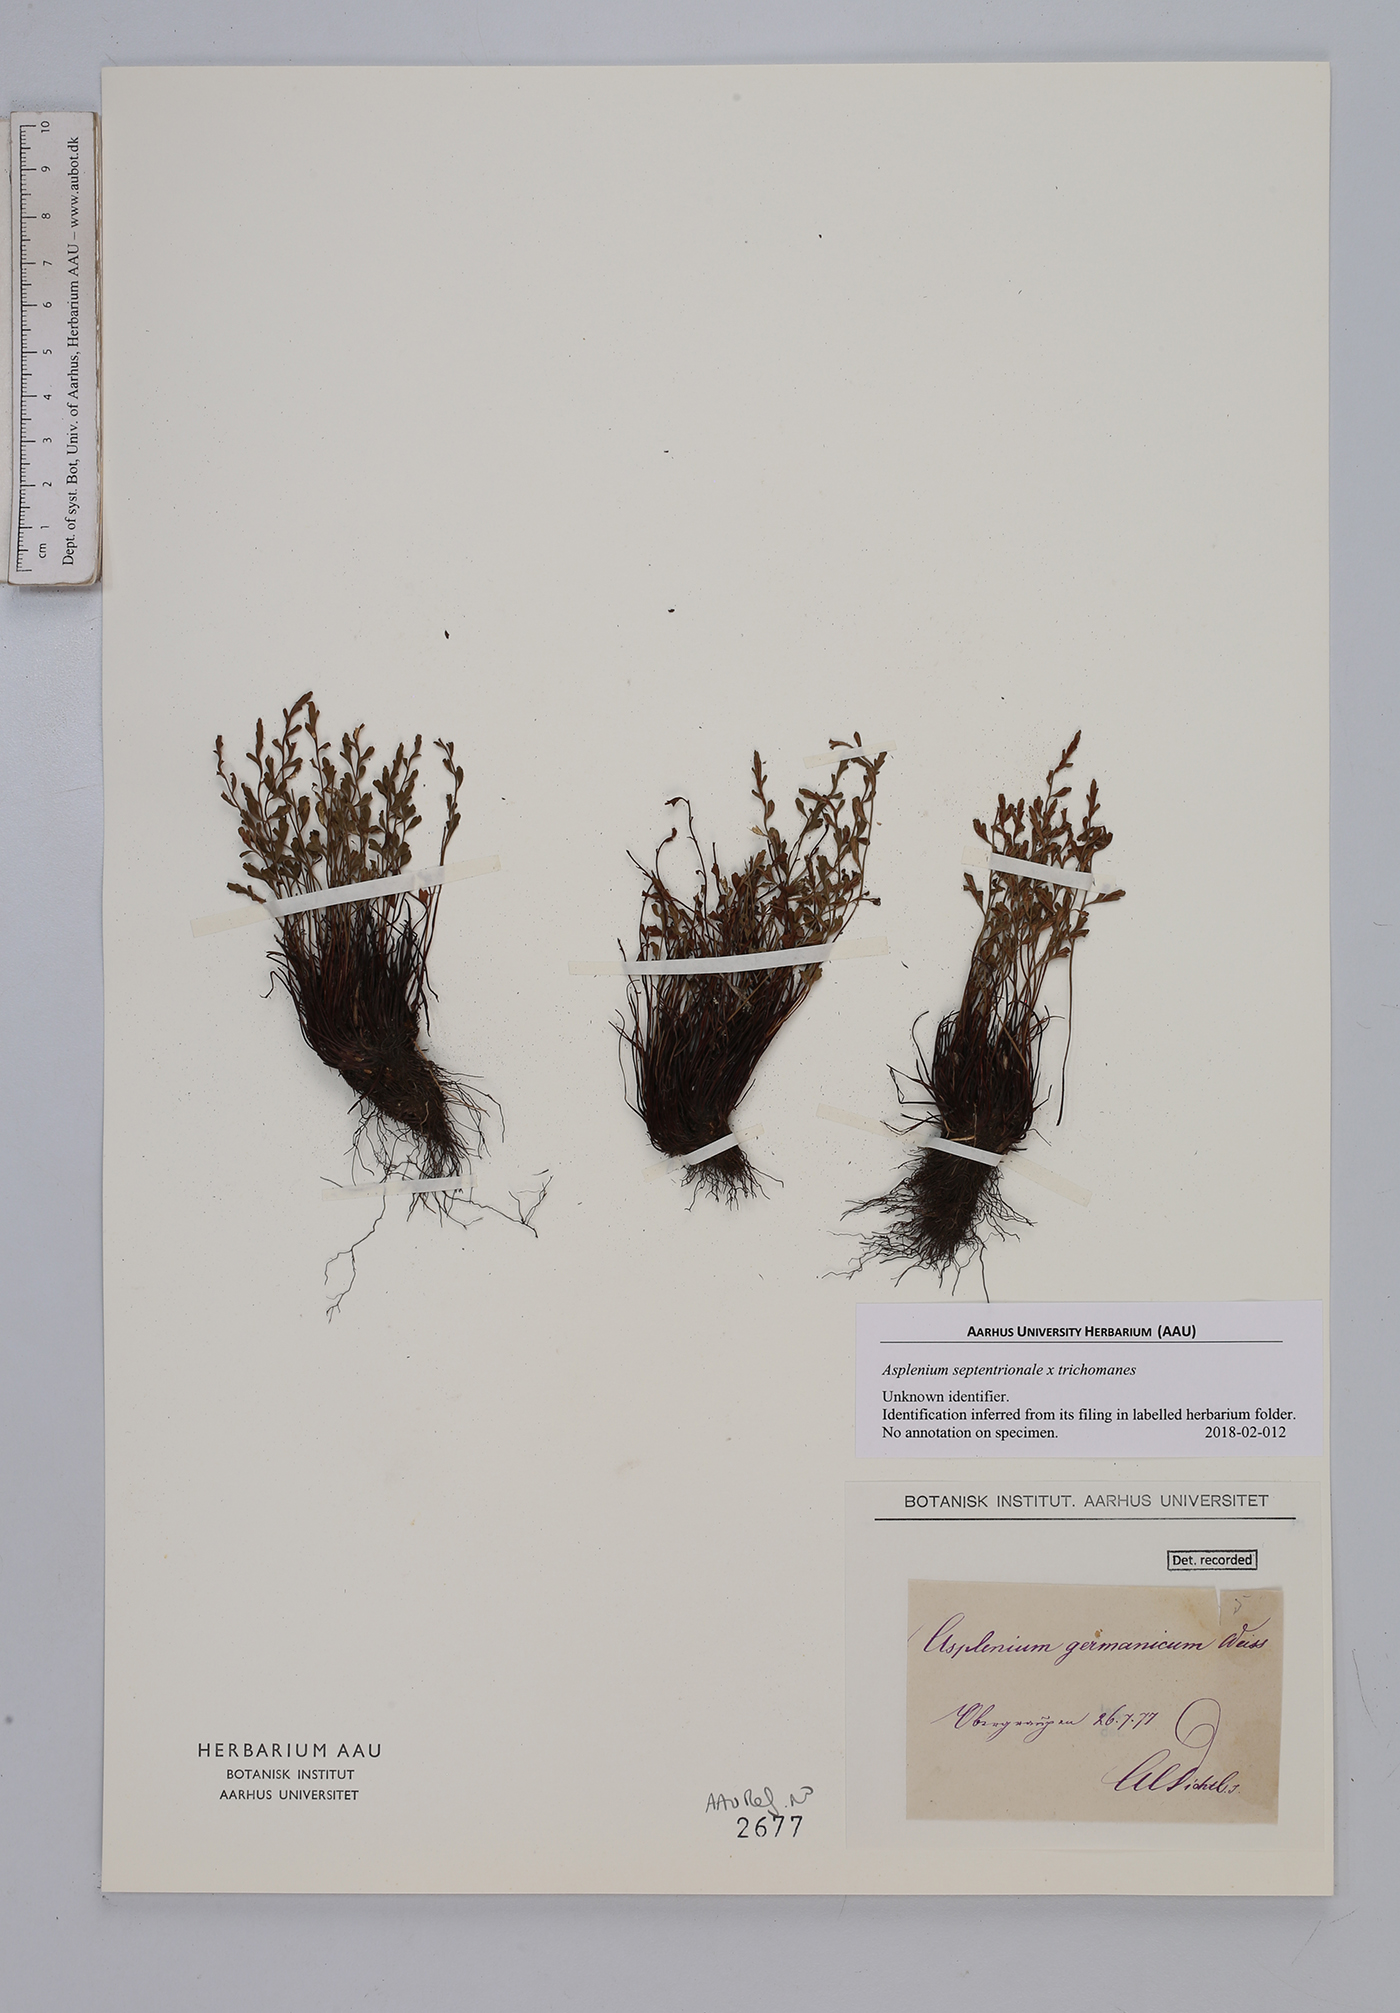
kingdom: Plantae
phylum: Tracheophyta
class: Polypodiopsida
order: Polypodiales
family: Aspleniaceae
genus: Asplenium
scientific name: Asplenium
